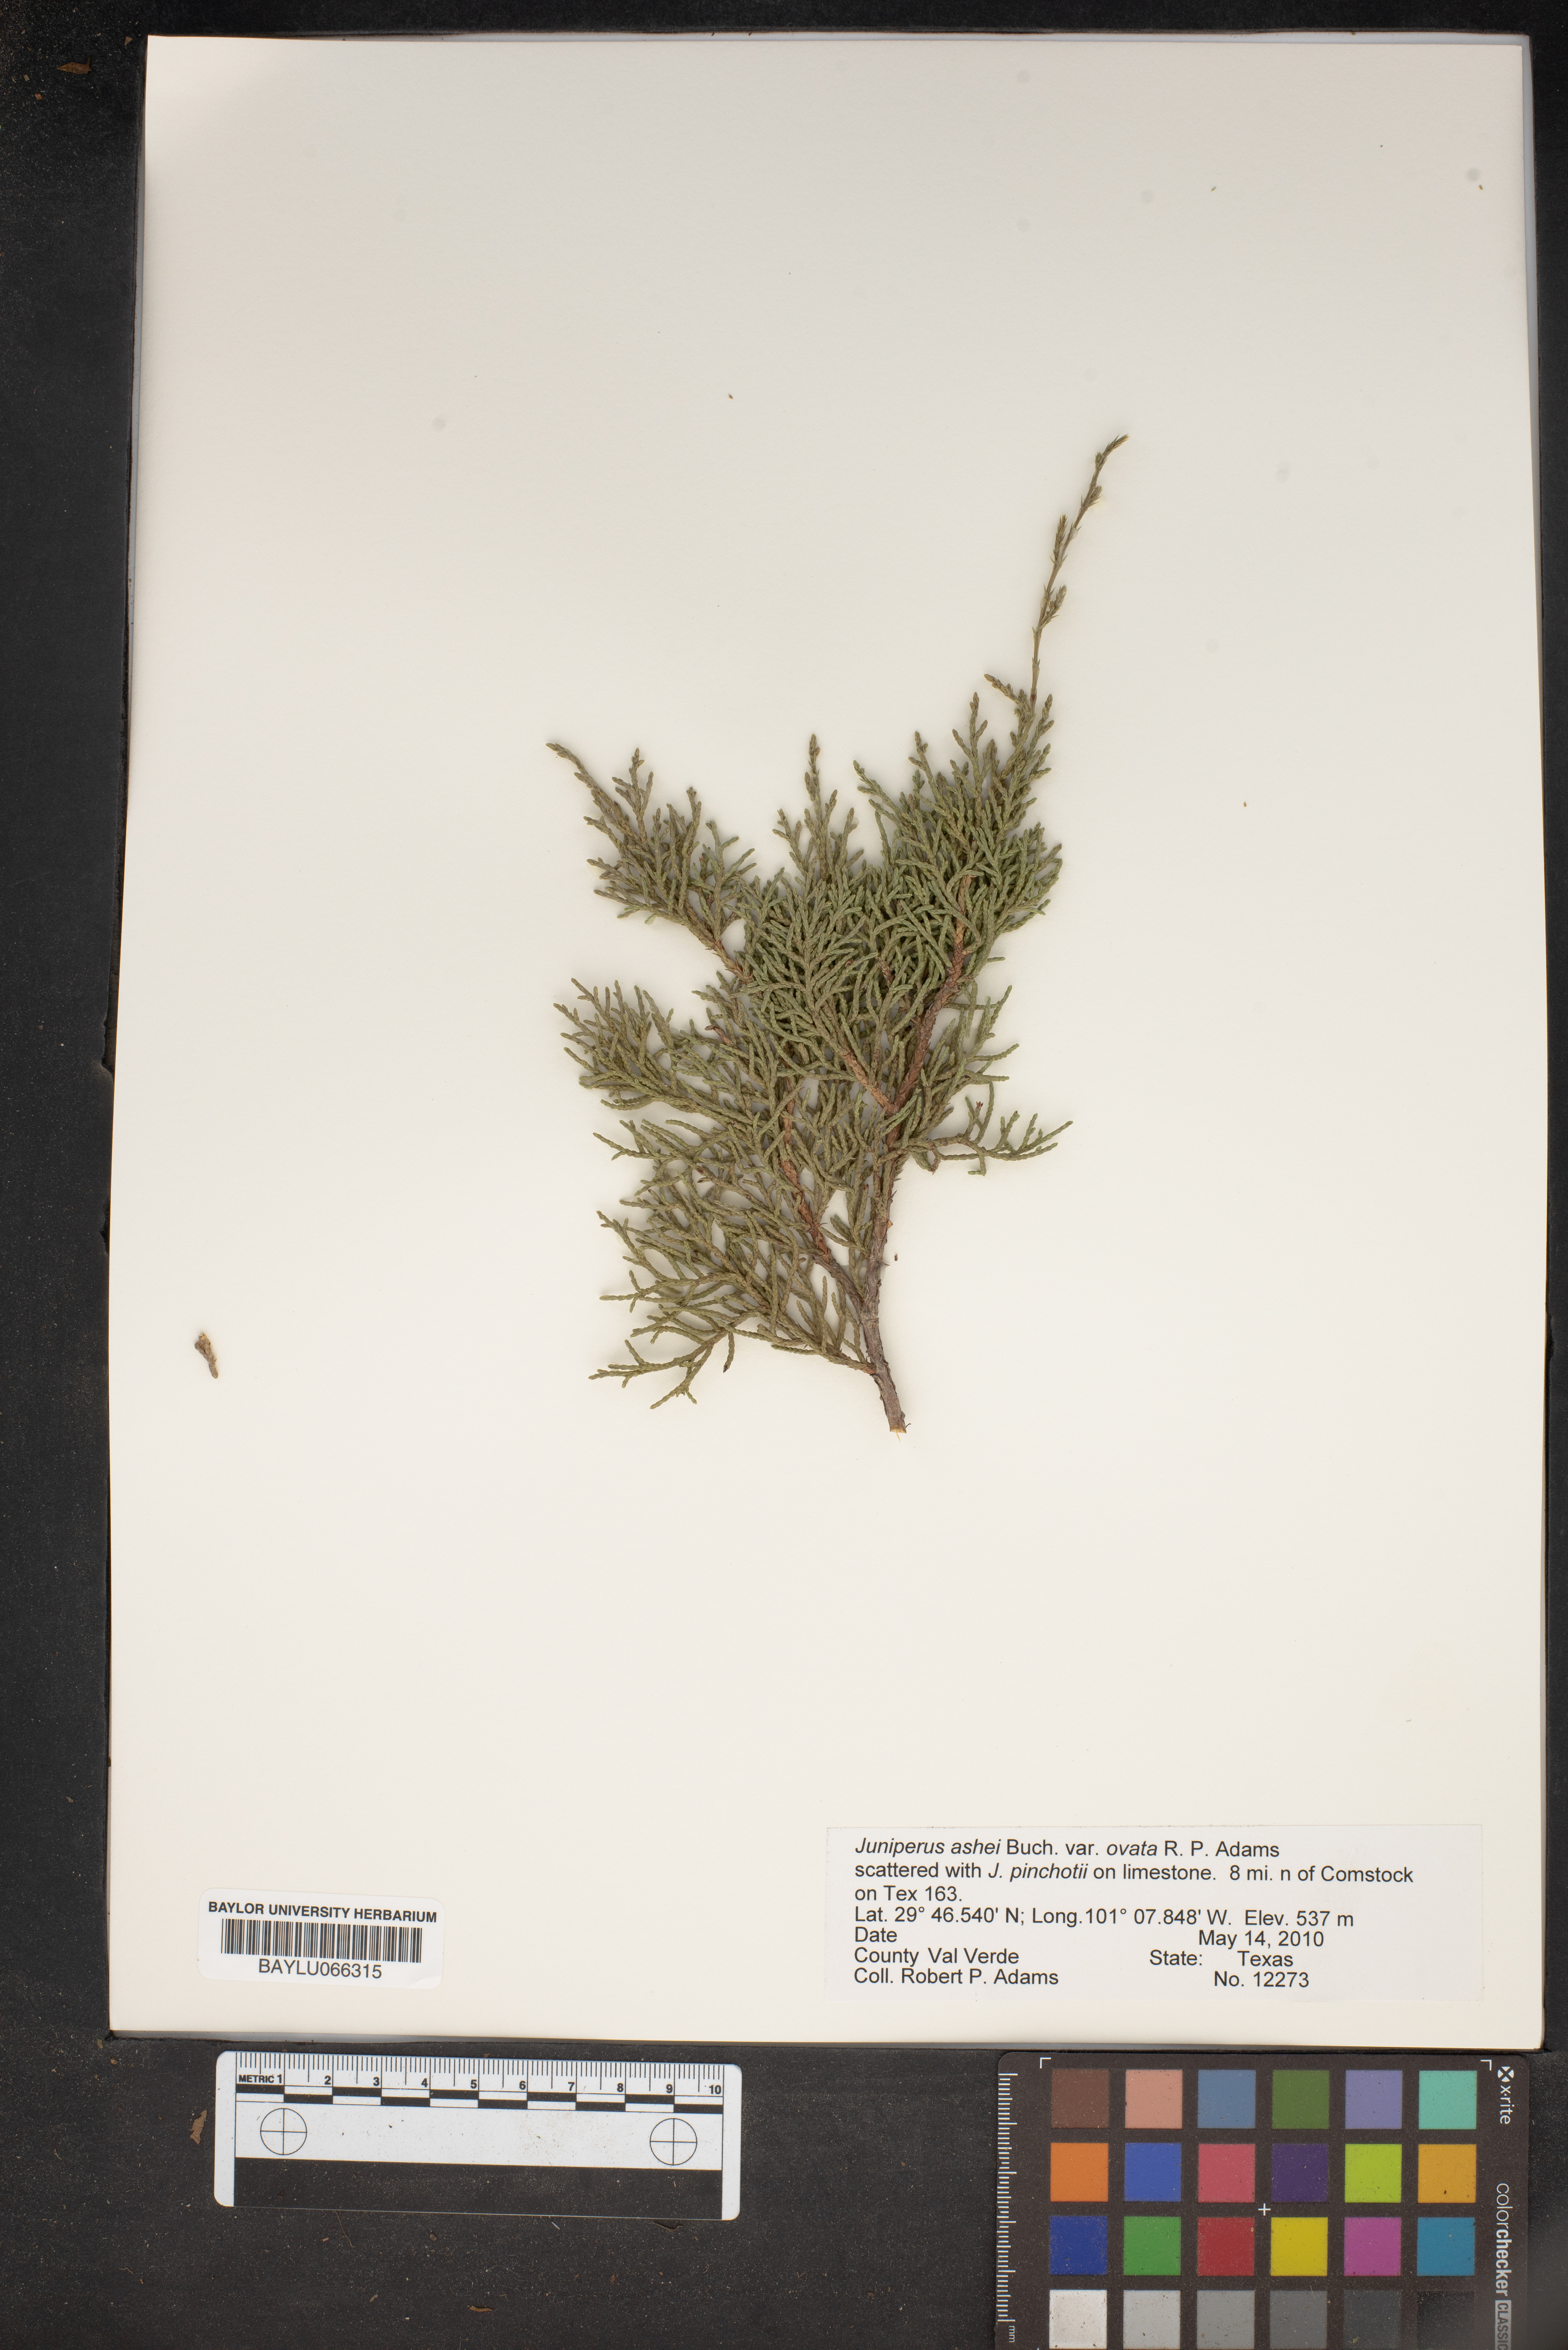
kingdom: Plantae
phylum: Tracheophyta
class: Pinopsida
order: Pinales
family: Cupressaceae
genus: Juniperus
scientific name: Juniperus ashei
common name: Mexican juniper
